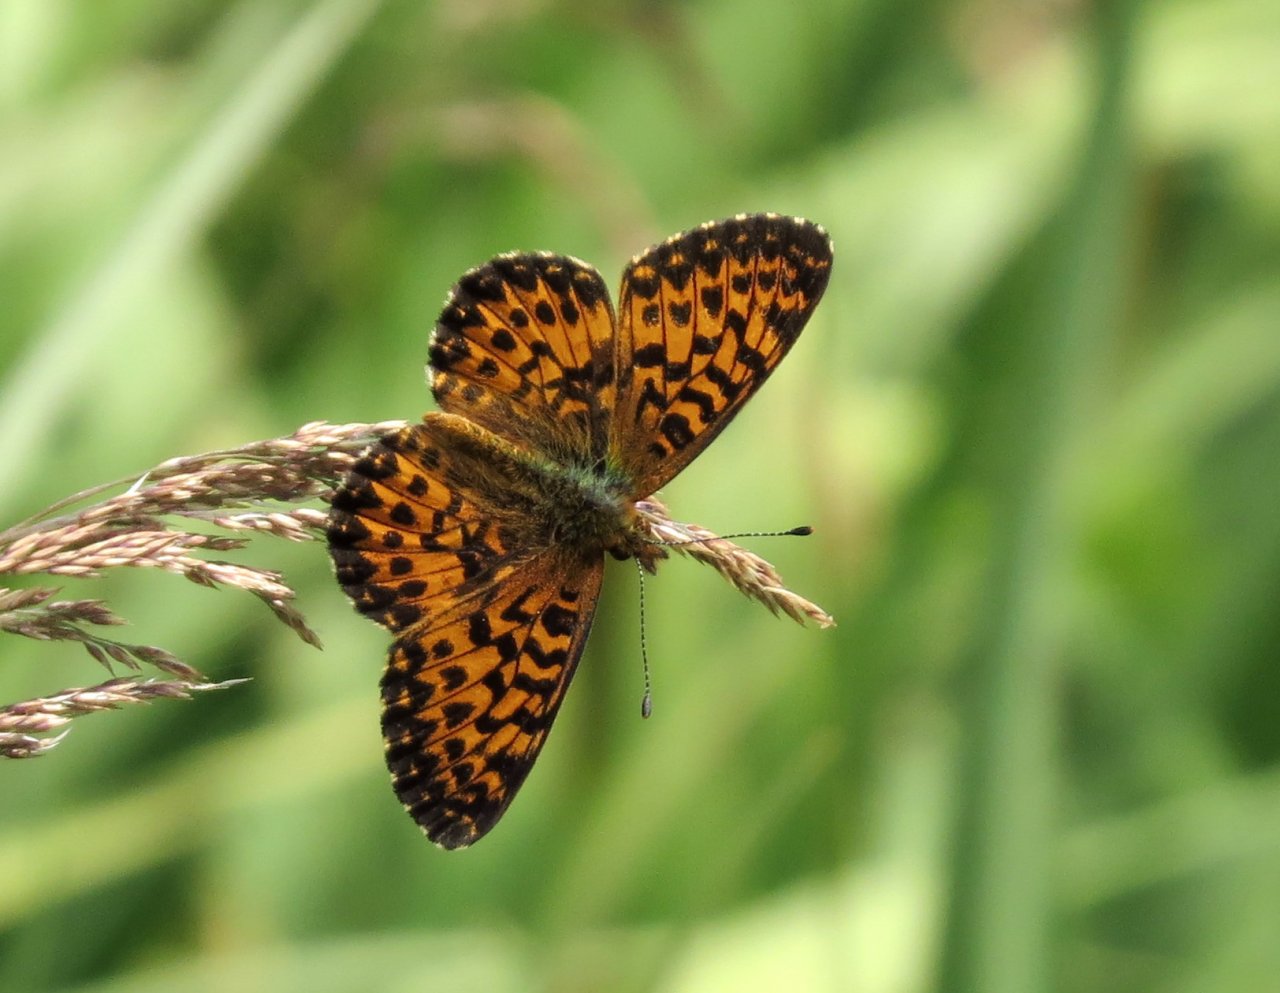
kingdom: Animalia
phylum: Arthropoda
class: Insecta
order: Lepidoptera
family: Nymphalidae
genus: Boloria
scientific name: Boloria chariclea
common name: Arctic Fritillary
